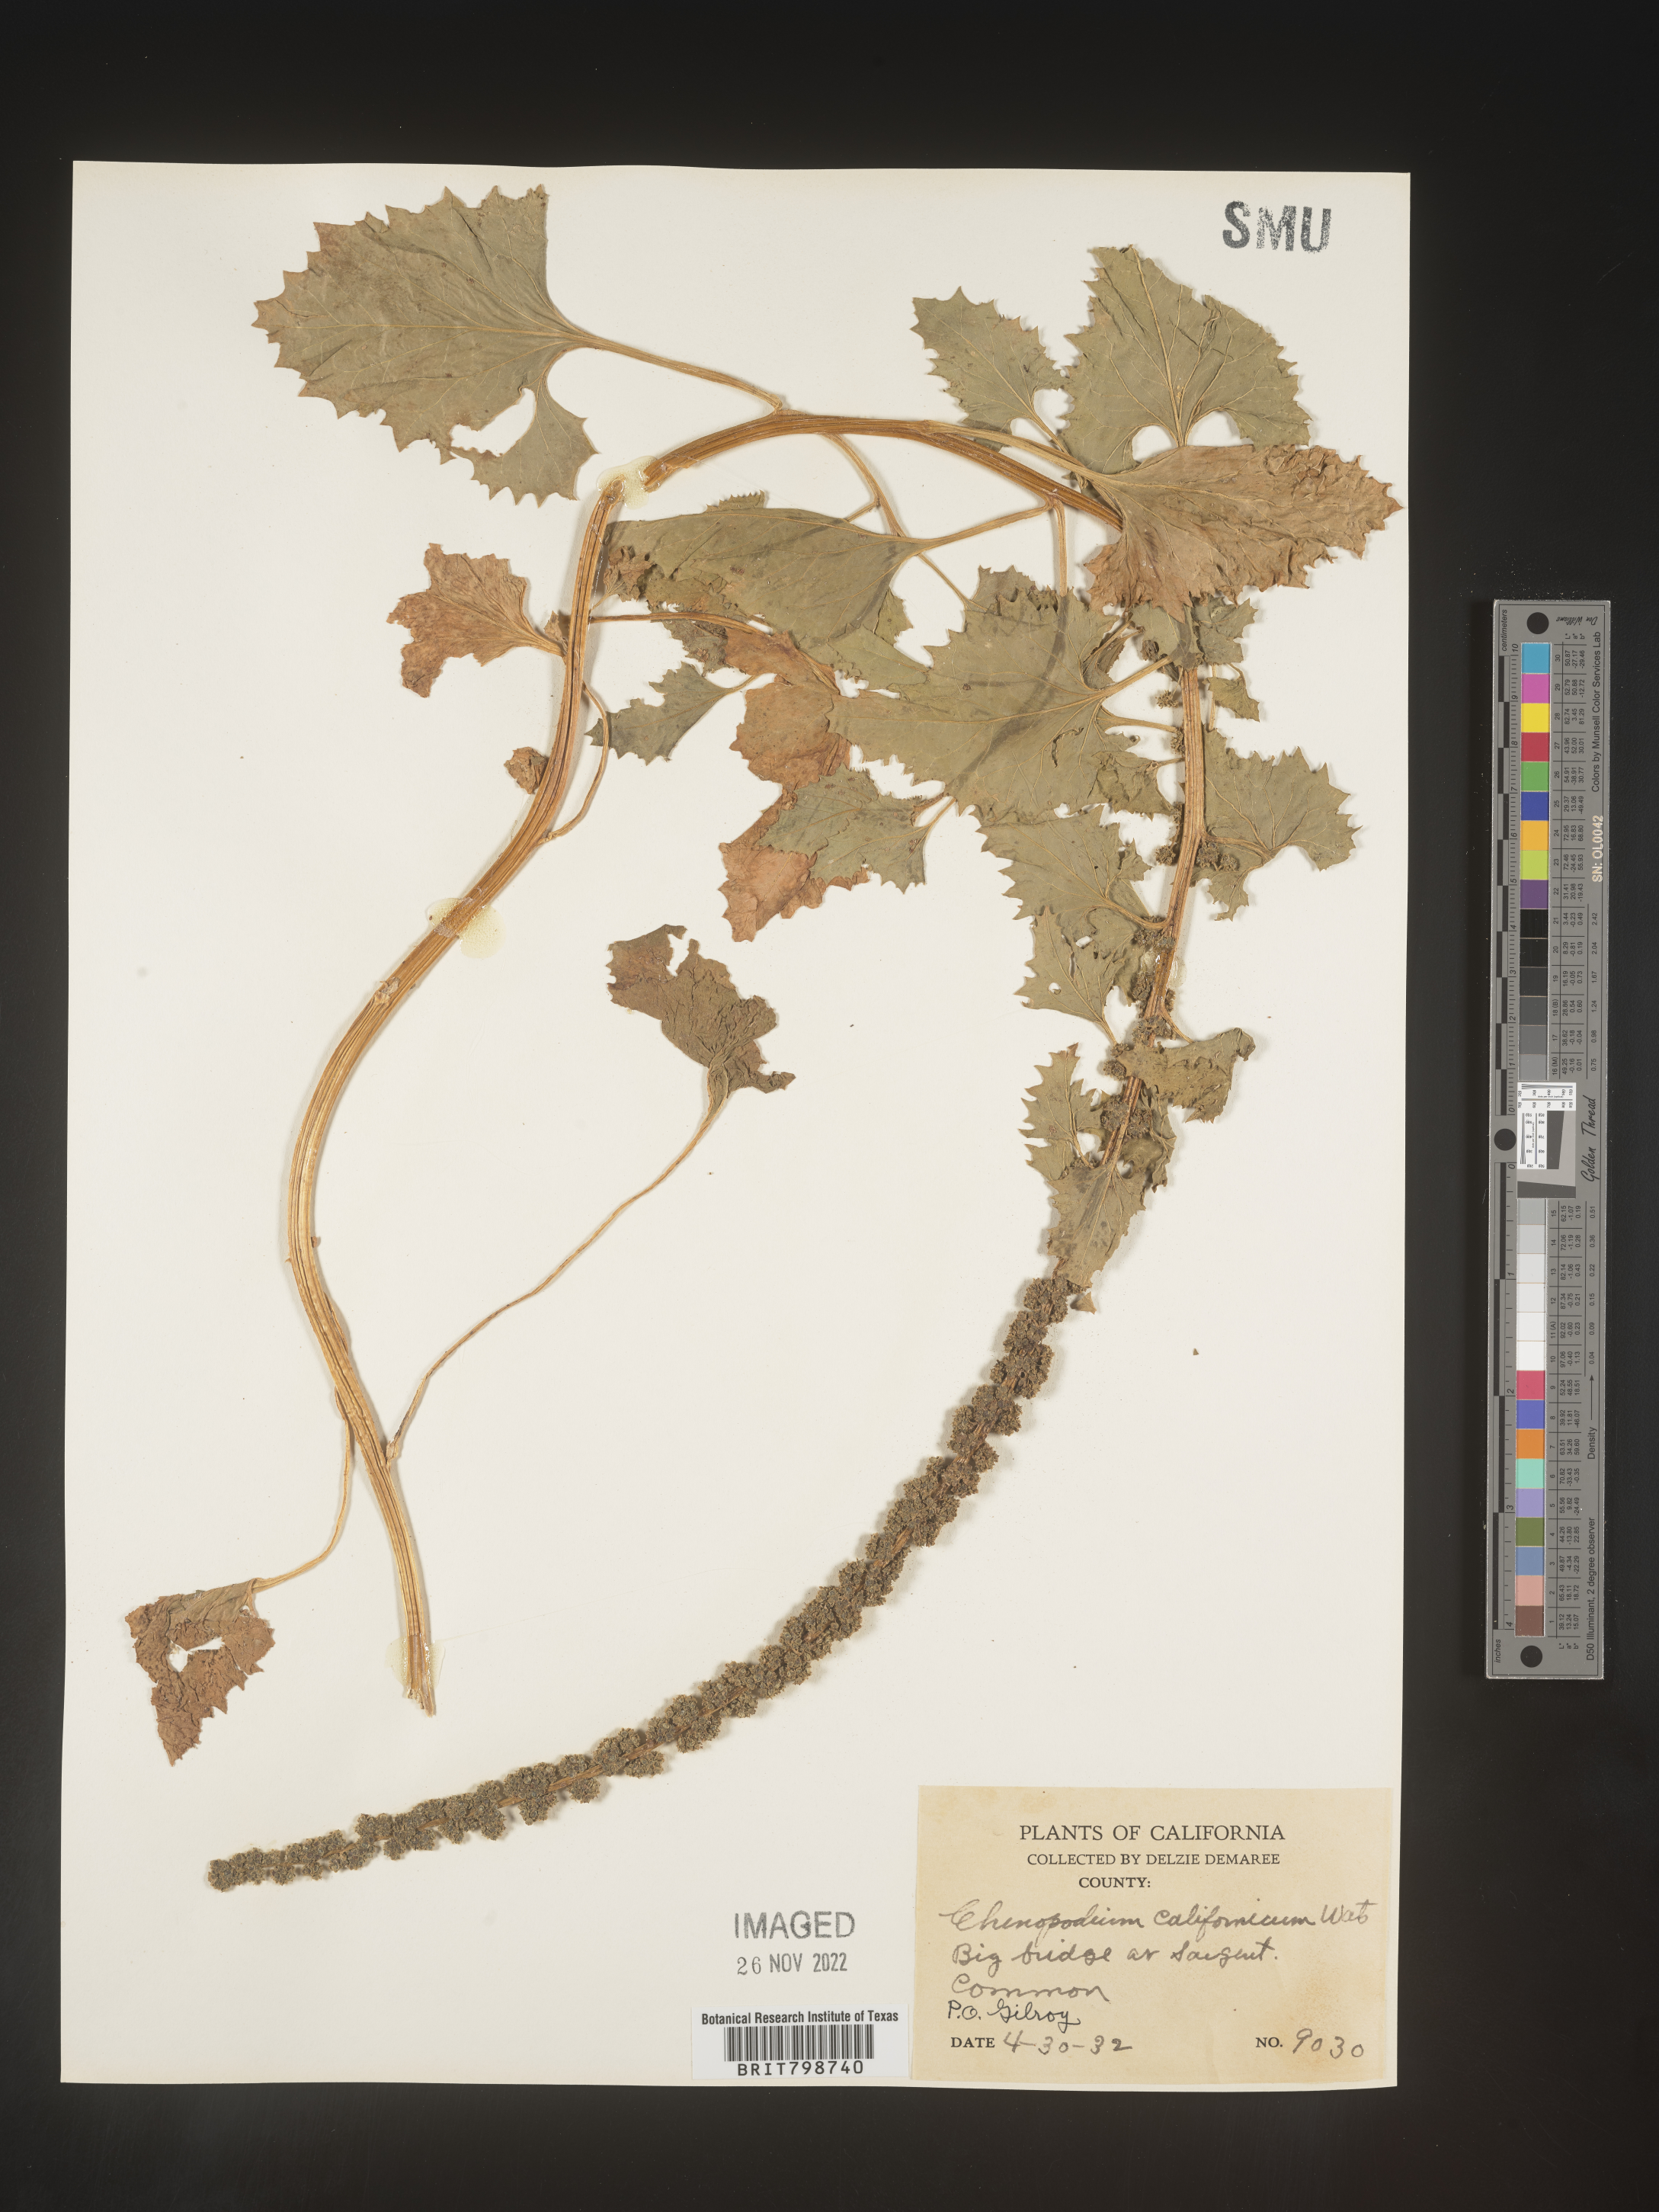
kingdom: Plantae
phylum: Tracheophyta
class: Magnoliopsida
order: Caryophyllales
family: Amaranthaceae
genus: Blitum
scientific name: Blitum californicum
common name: California goosefoot
